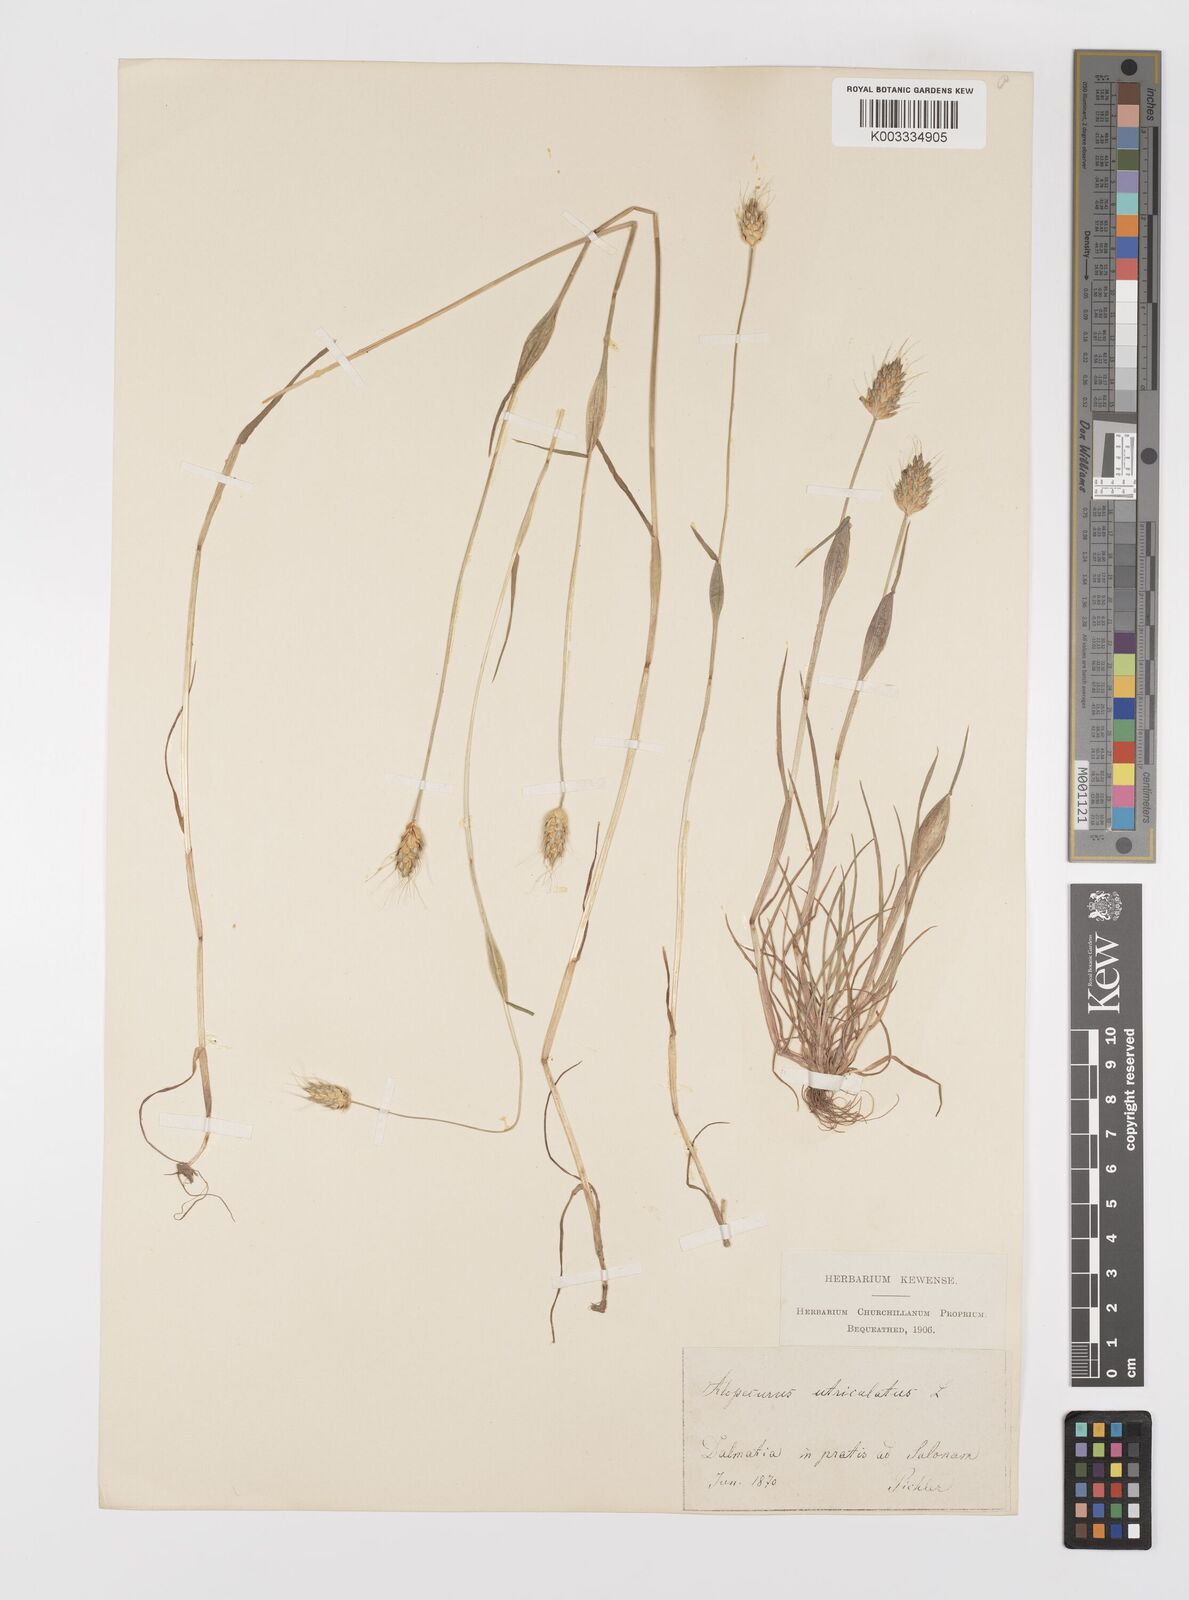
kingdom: Plantae
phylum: Tracheophyta
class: Liliopsida
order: Poales
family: Poaceae
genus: Alopecurus
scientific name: Alopecurus rendlei
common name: Rendle's meadow foxtail
